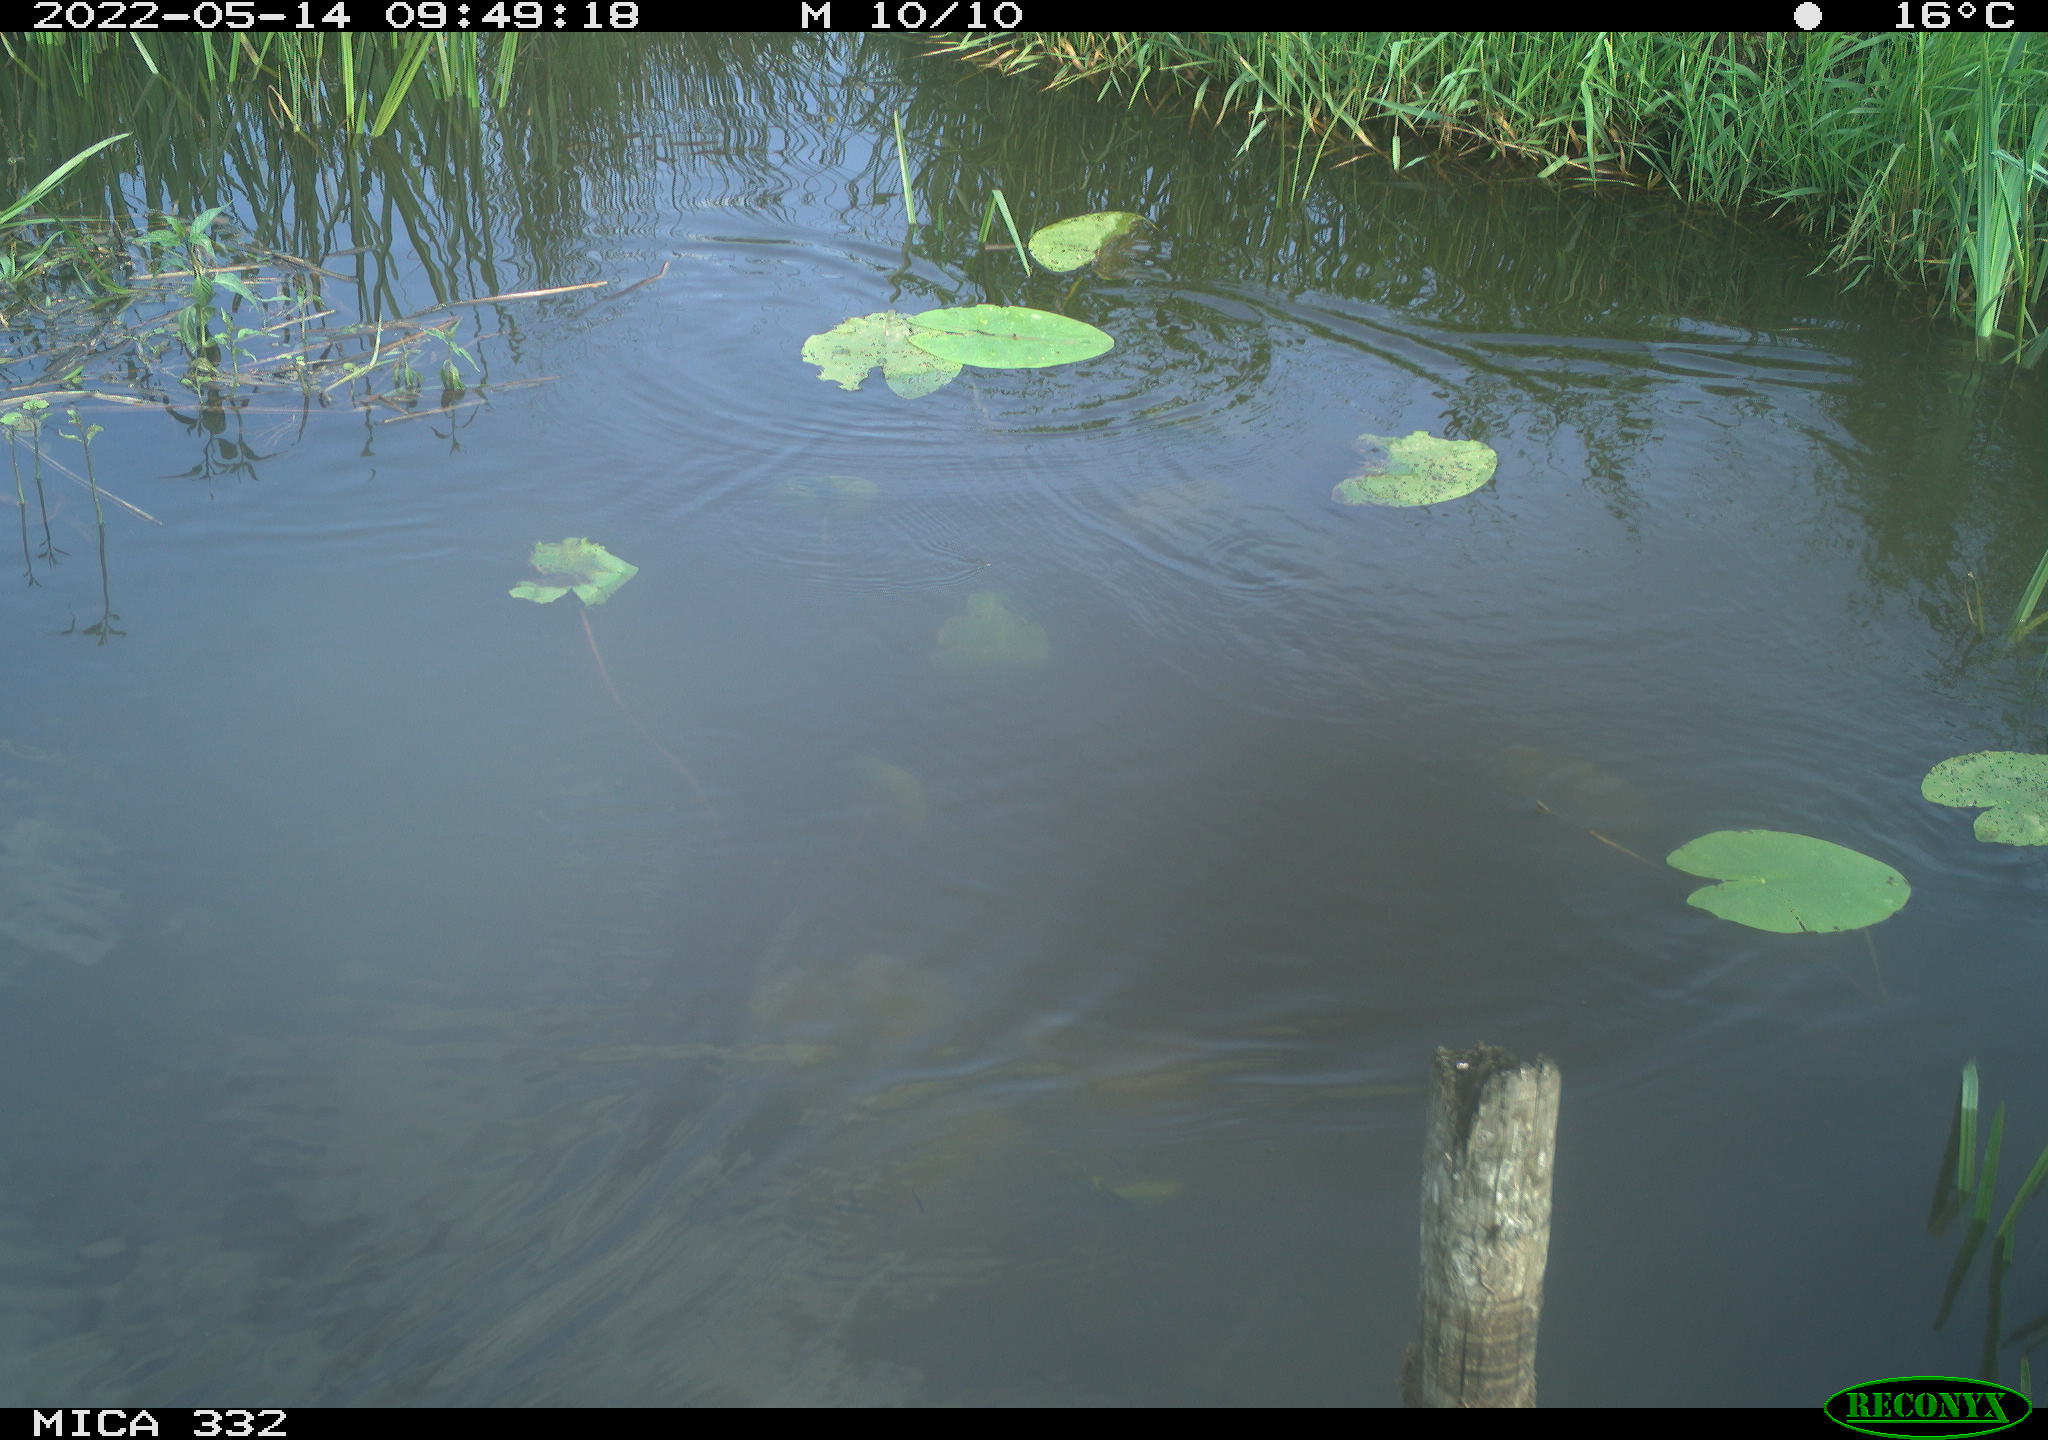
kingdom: Animalia
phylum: Chordata
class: Aves
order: Anseriformes
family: Anatidae
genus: Anas
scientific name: Anas platyrhynchos
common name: Mallard
